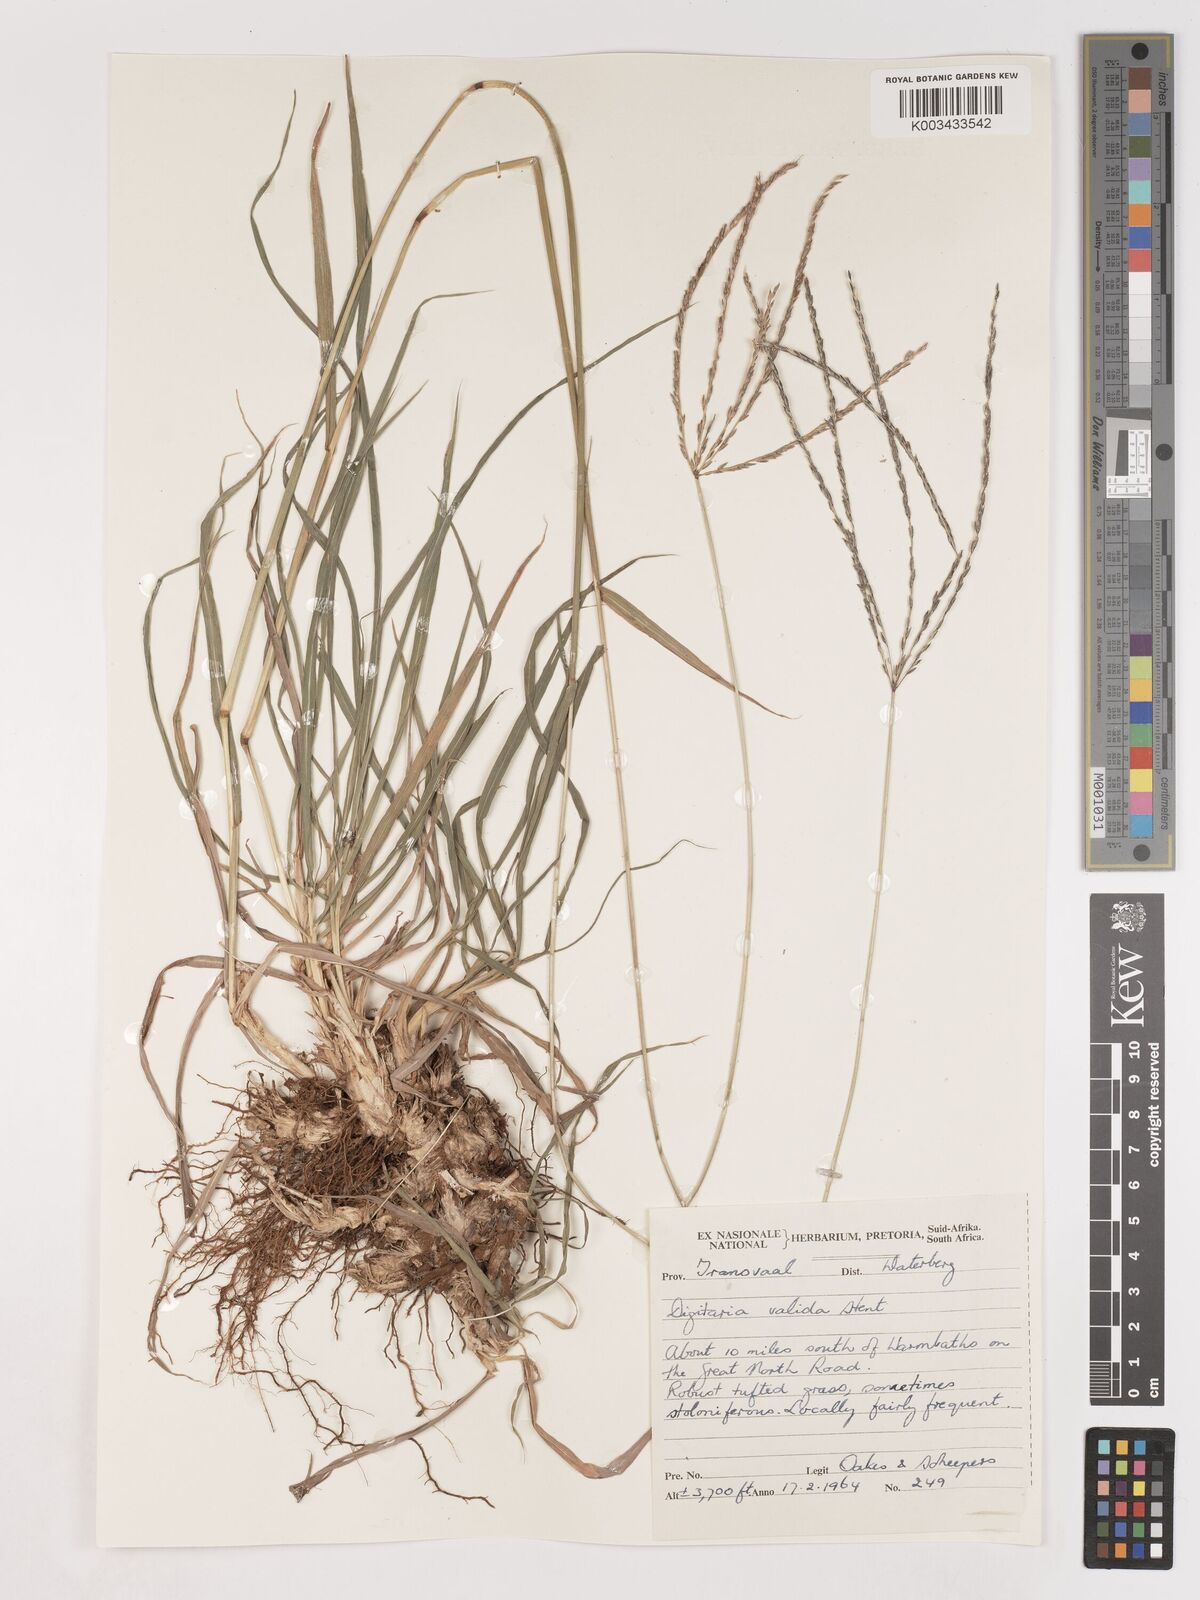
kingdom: Plantae
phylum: Tracheophyta
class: Liliopsida
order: Poales
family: Poaceae
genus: Digitaria
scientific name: Digitaria eriantha
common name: Digitgrass
